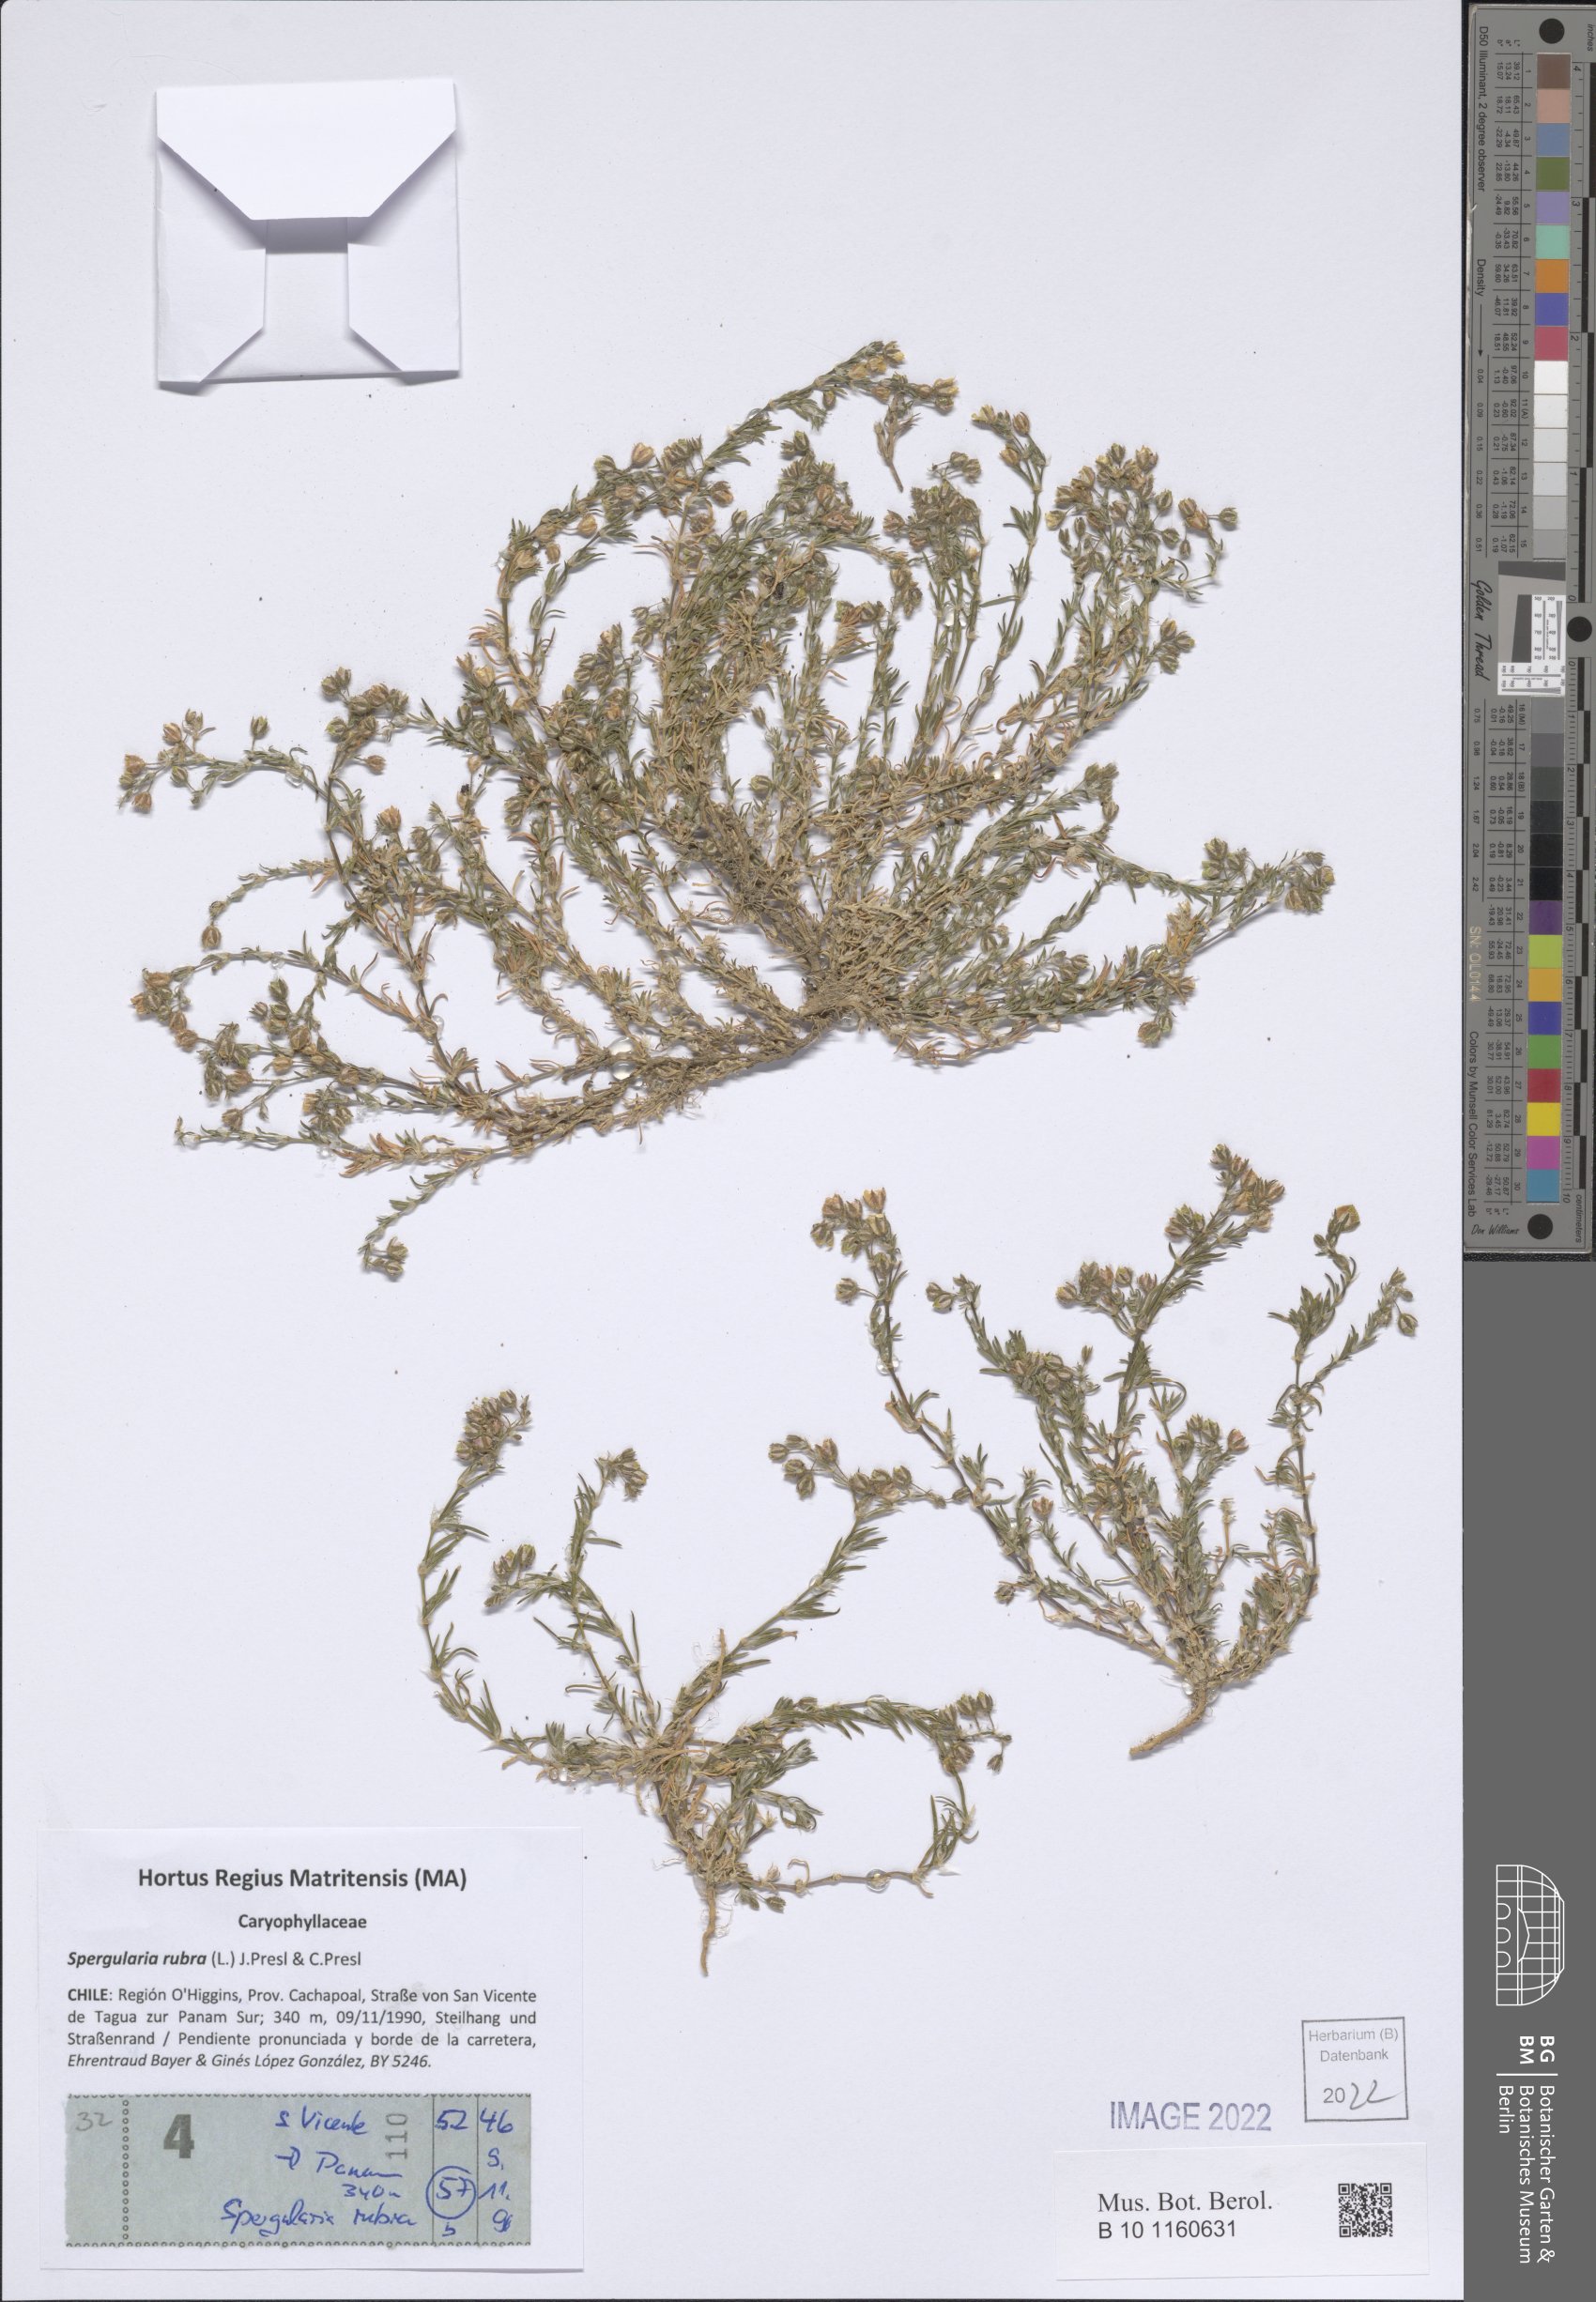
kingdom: Plantae
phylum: Tracheophyta
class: Magnoliopsida
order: Caryophyllales
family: Caryophyllaceae
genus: Spergularia
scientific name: Spergularia rubra
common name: Red sand-spurrey
